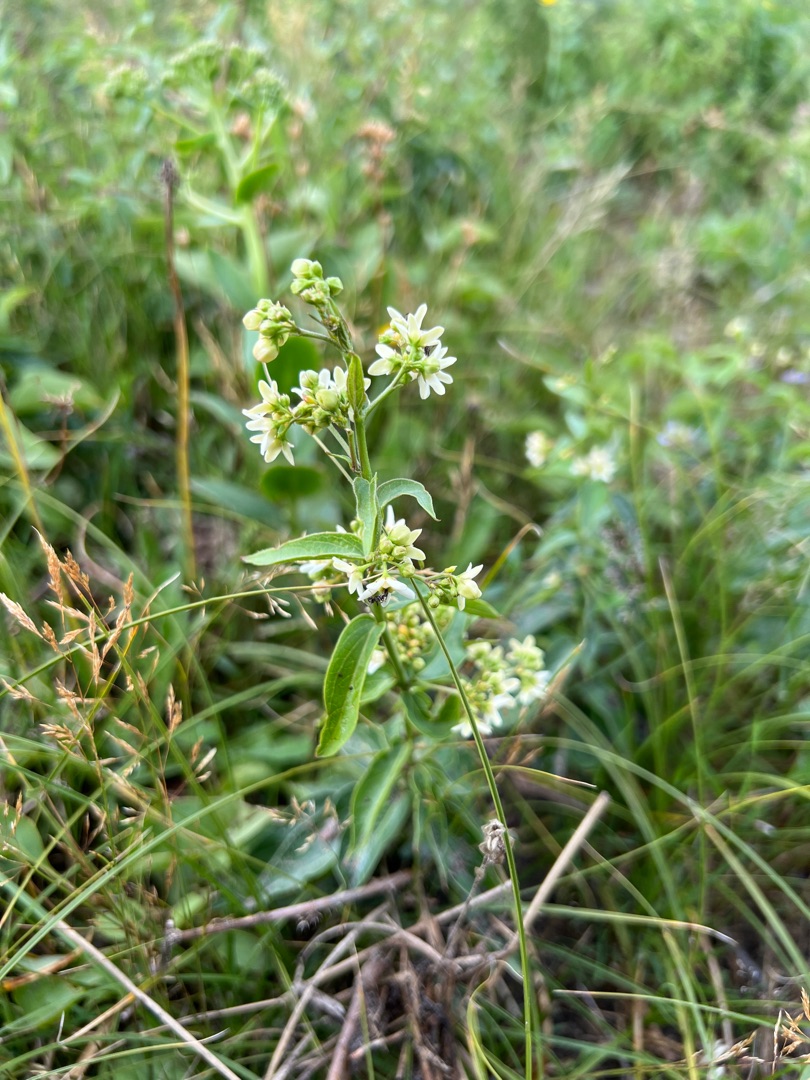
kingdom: Plantae
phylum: Tracheophyta
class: Magnoliopsida
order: Gentianales
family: Apocynaceae
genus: Vincetoxicum
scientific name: Vincetoxicum hirundinaria
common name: Svalerod
